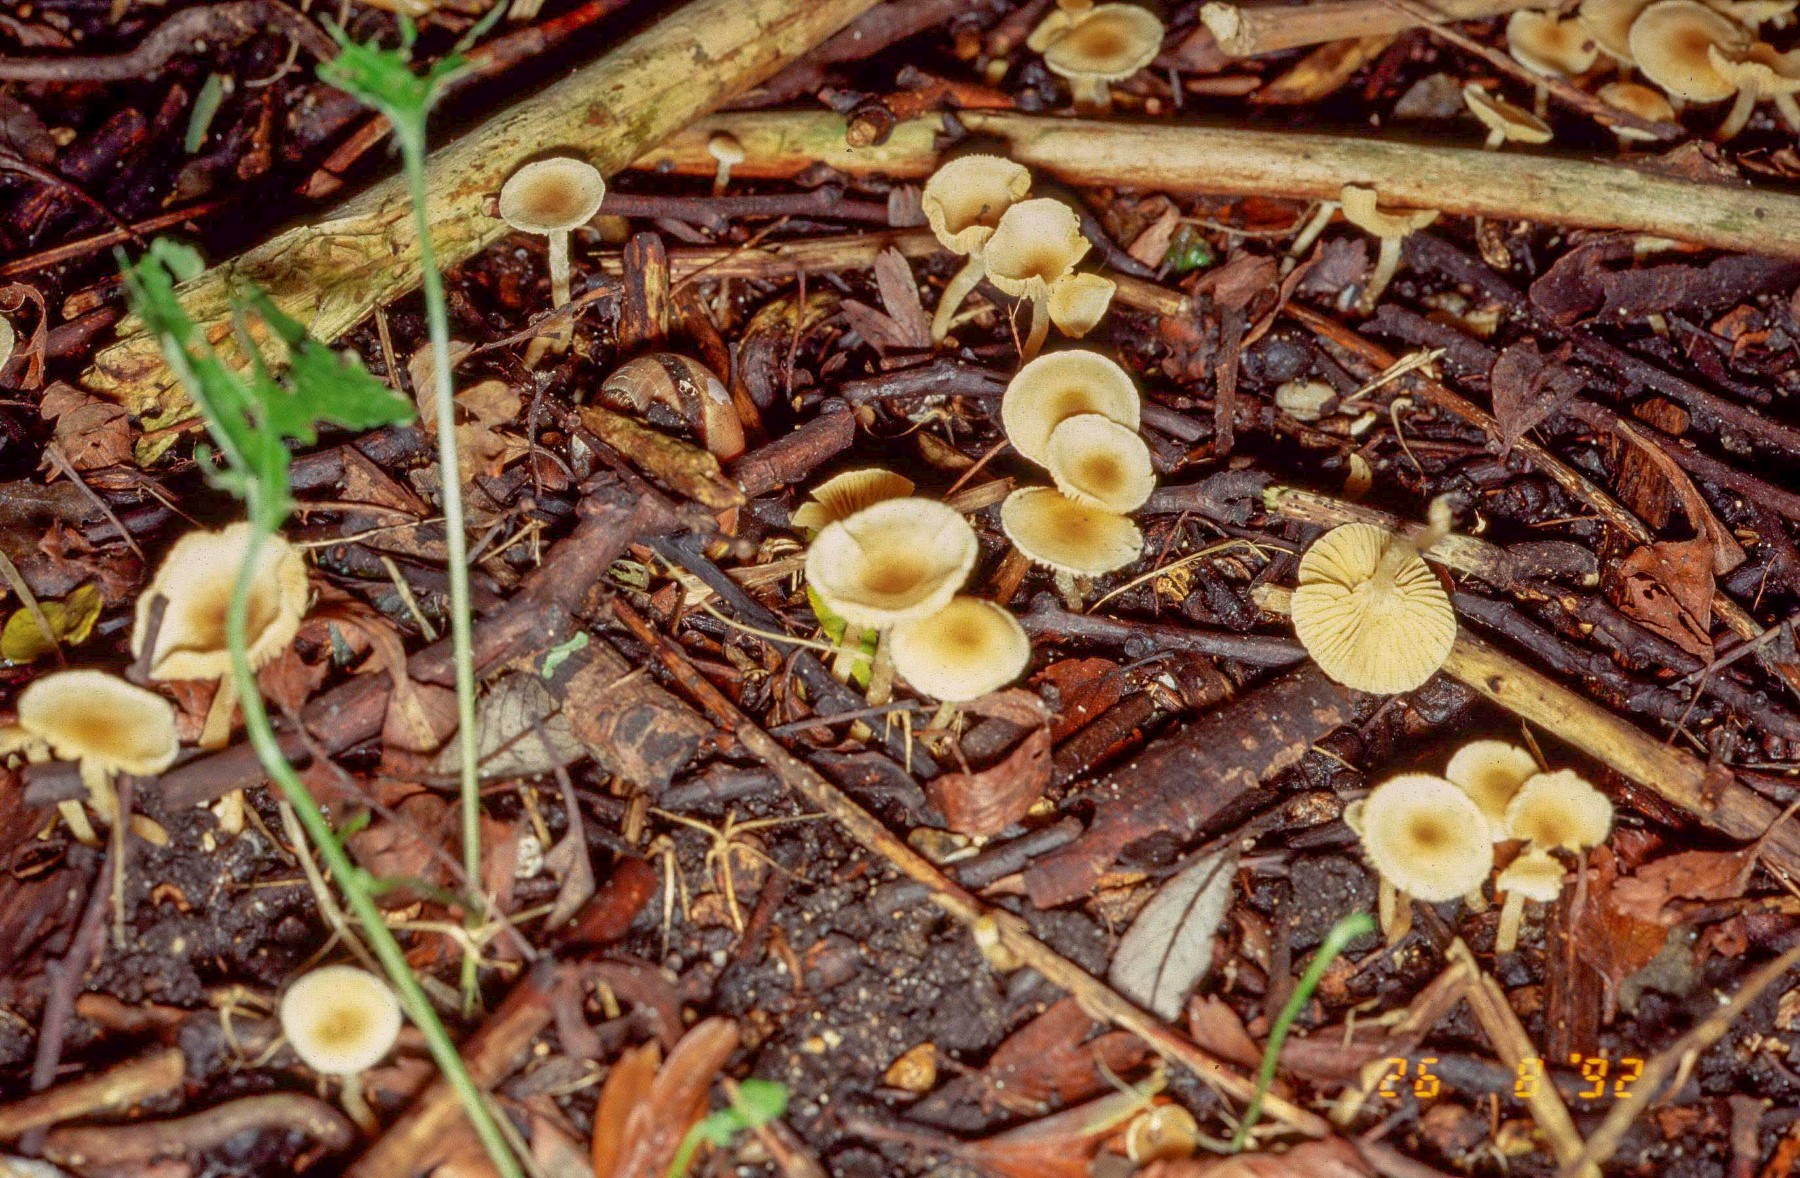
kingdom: Fungi
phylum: Basidiomycota
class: Agaricomycetes
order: Agaricales
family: Tubariaceae
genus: Tubaria
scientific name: Tubaria dispersa
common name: tjørne-fnughat
